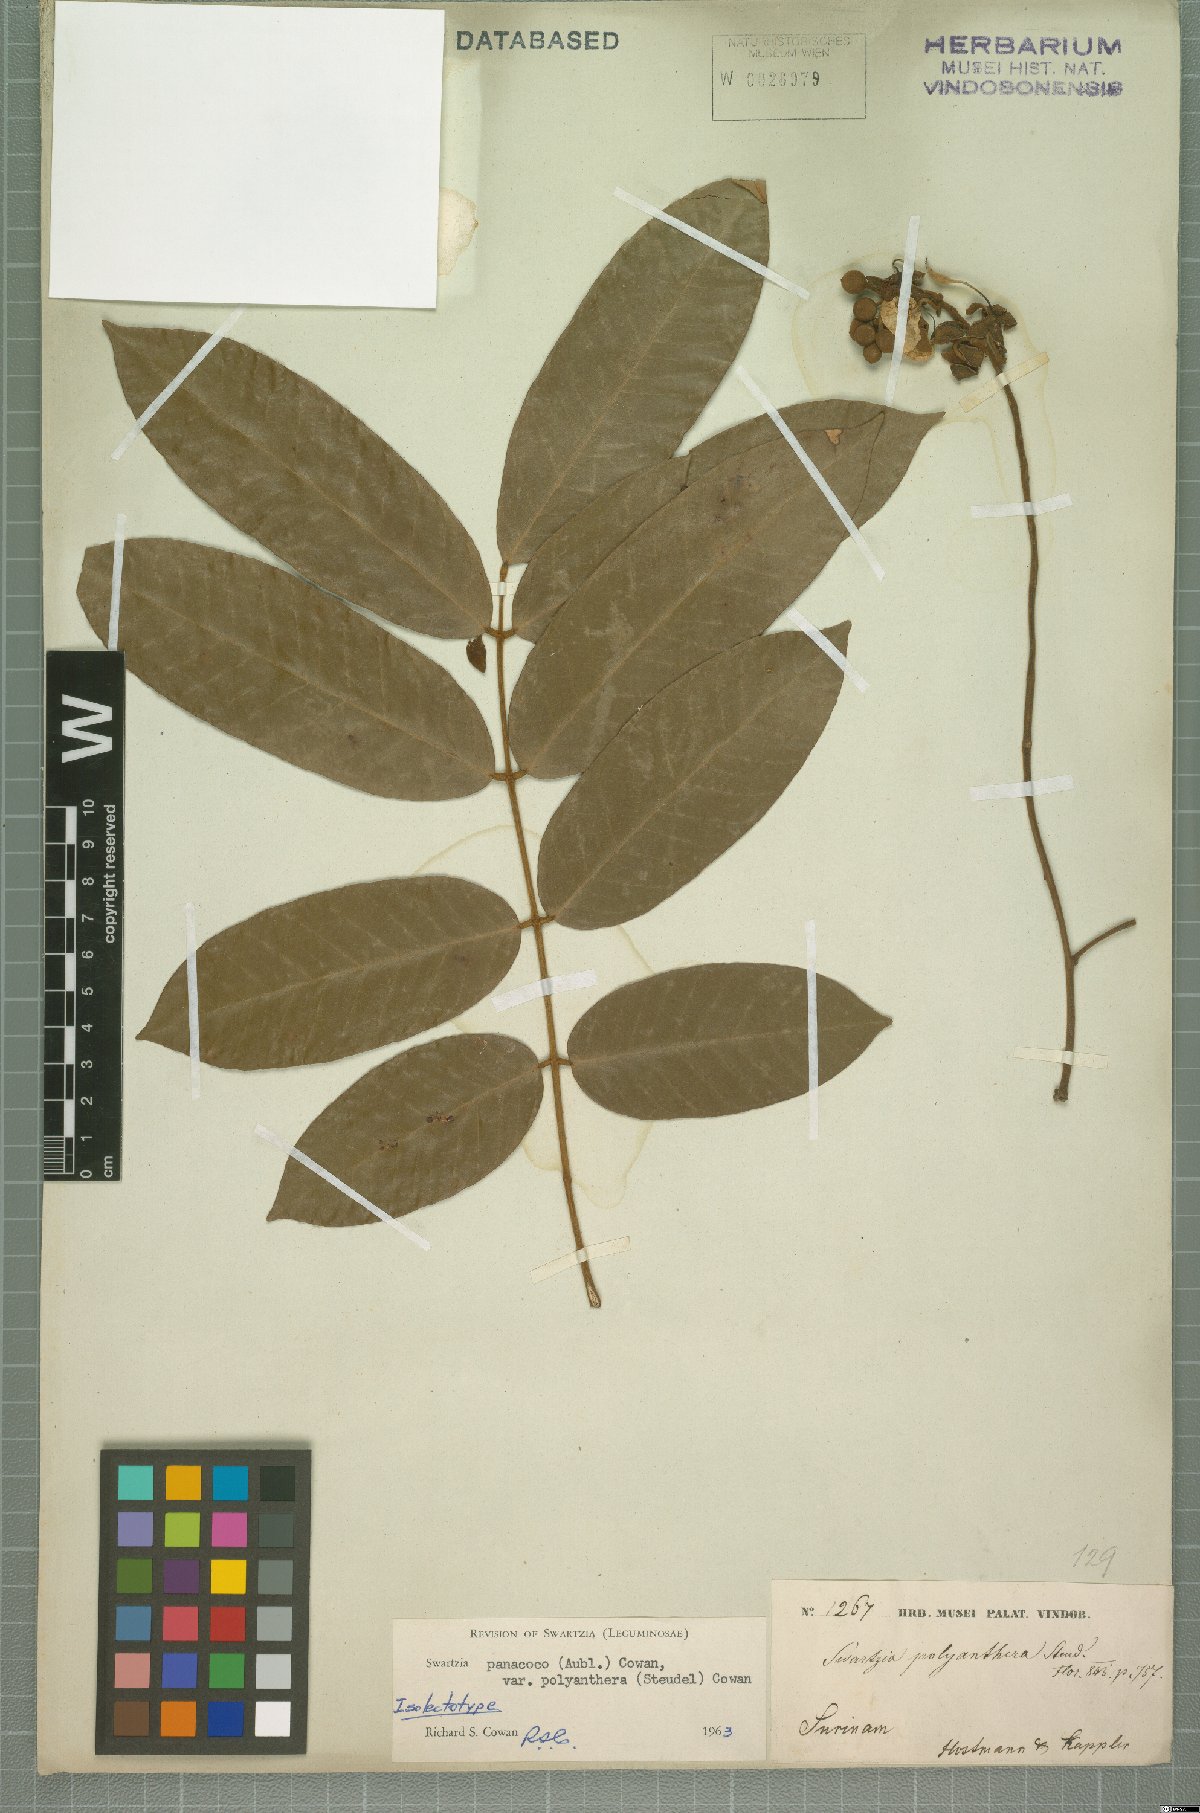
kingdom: Plantae
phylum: Tracheophyta
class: Magnoliopsida
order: Fabales
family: Fabaceae
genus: Swartzia
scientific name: Swartzia panacoco
